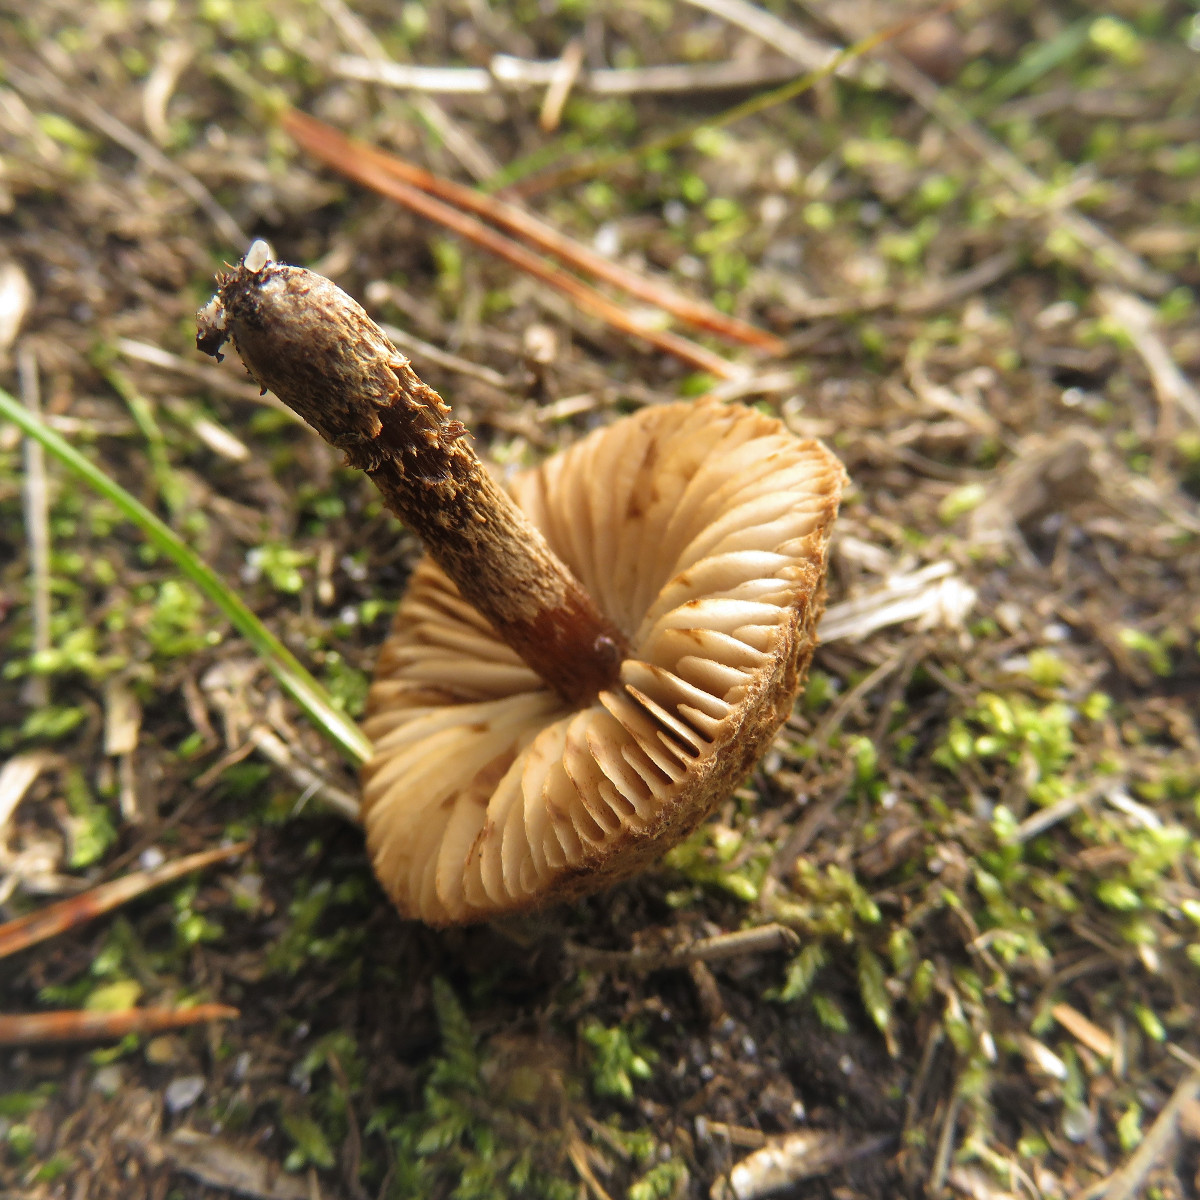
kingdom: Fungi
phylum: Basidiomycota
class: Agaricomycetes
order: Agaricales
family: Inocybaceae
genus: Inocybe
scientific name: Inocybe
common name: trævlhat
